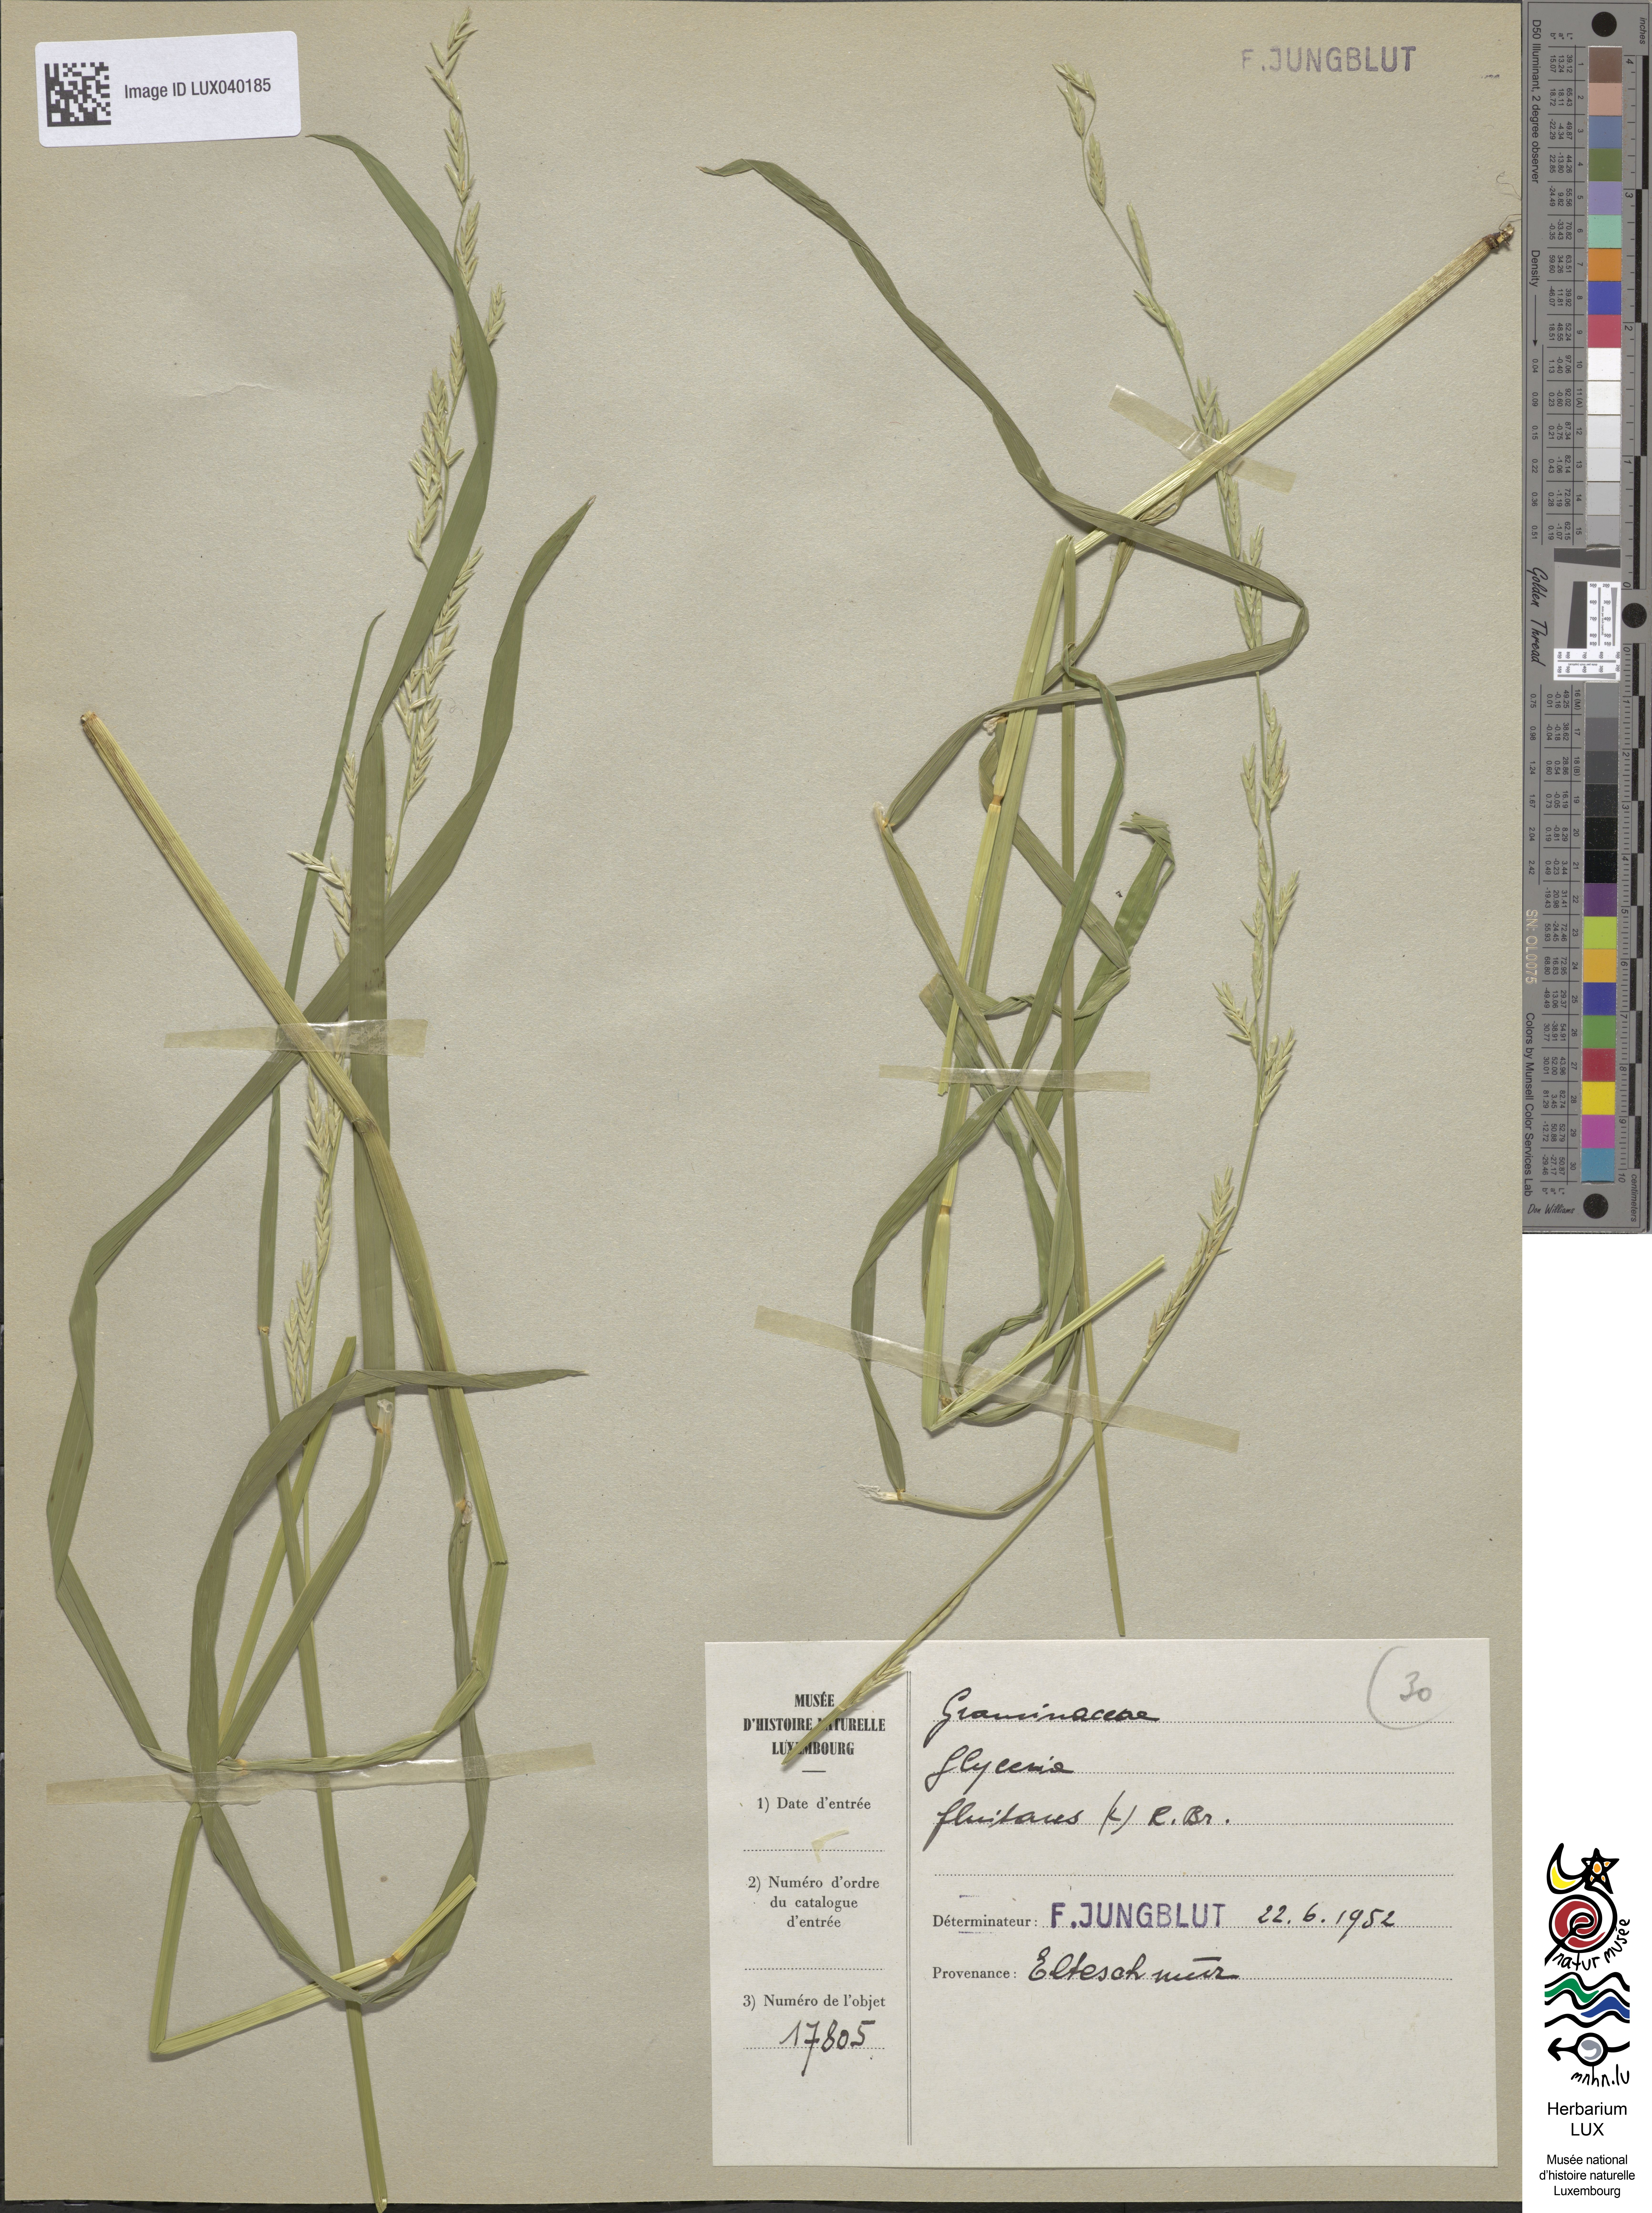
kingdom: Plantae
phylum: Tracheophyta
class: Liliopsida
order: Poales
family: Poaceae
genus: Glyceria
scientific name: Glyceria fluitans
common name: Floating sweet-grass
